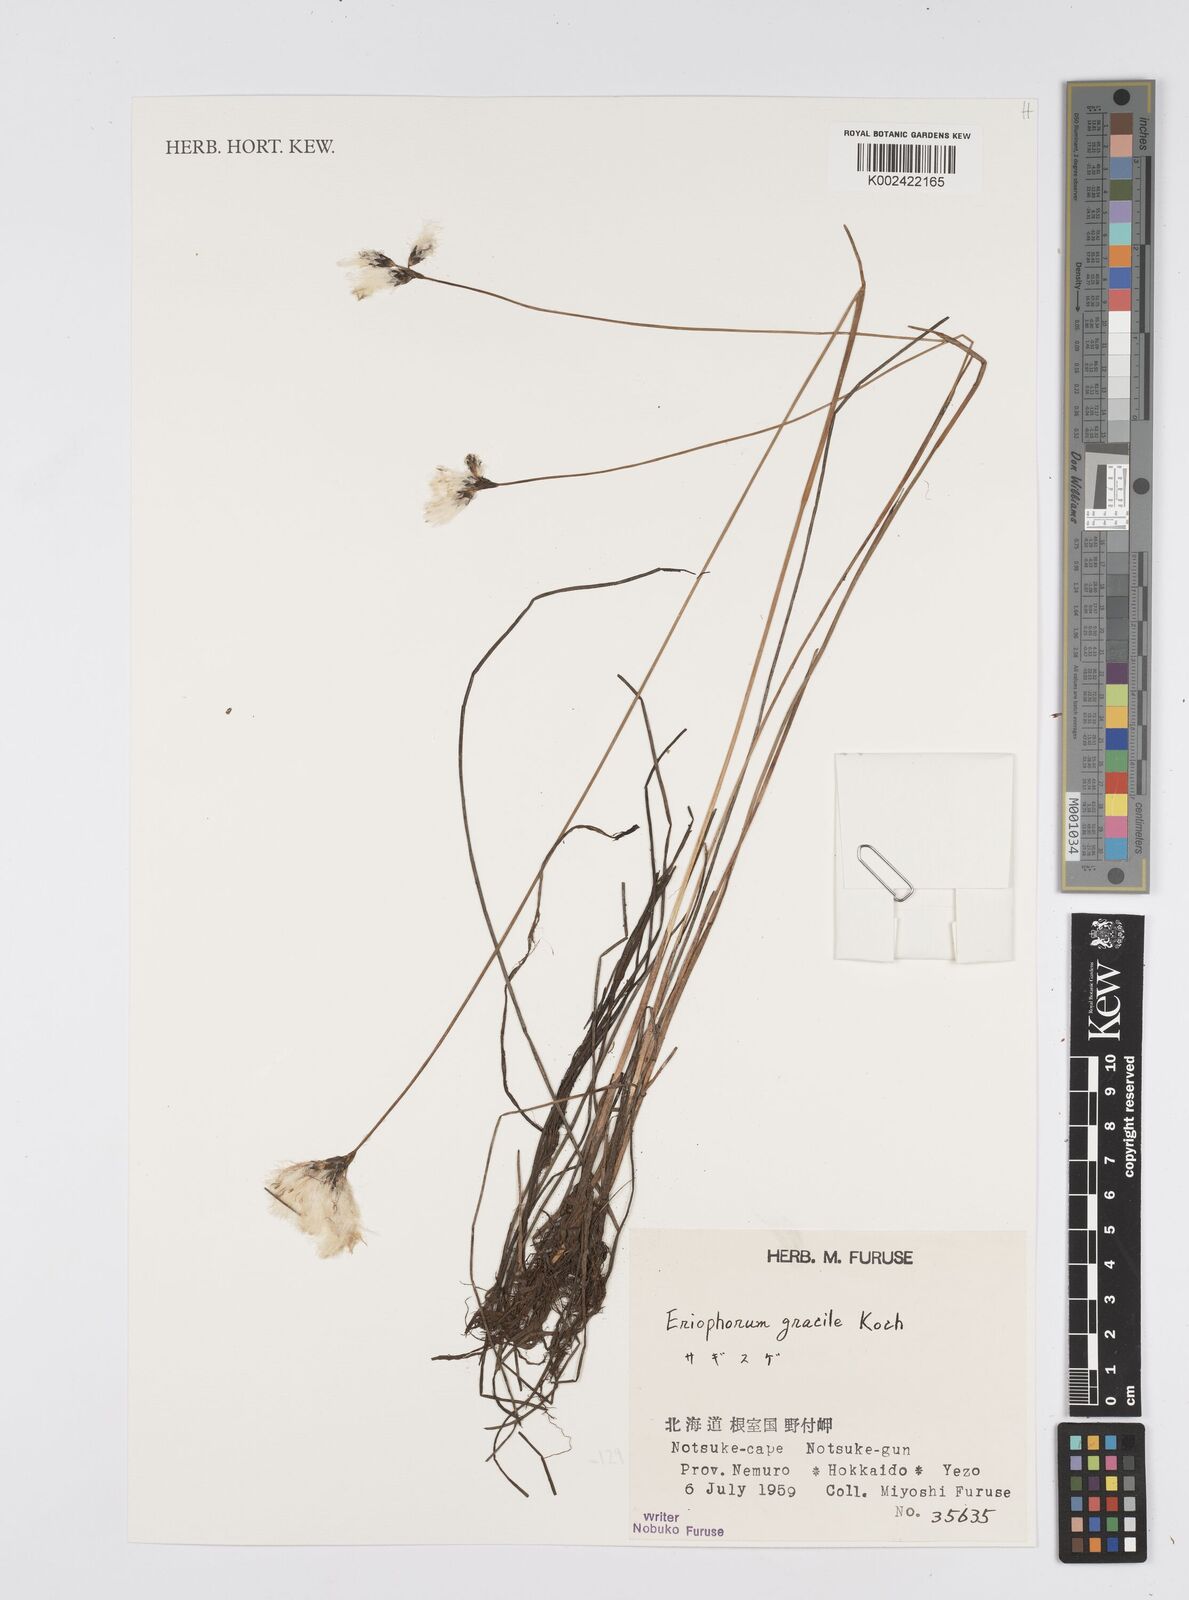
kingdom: Plantae
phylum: Tracheophyta
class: Liliopsida
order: Poales
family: Cyperaceae
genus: Eleocharis
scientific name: Eleocharis multicaulis
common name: Many-stalked spike-rush
